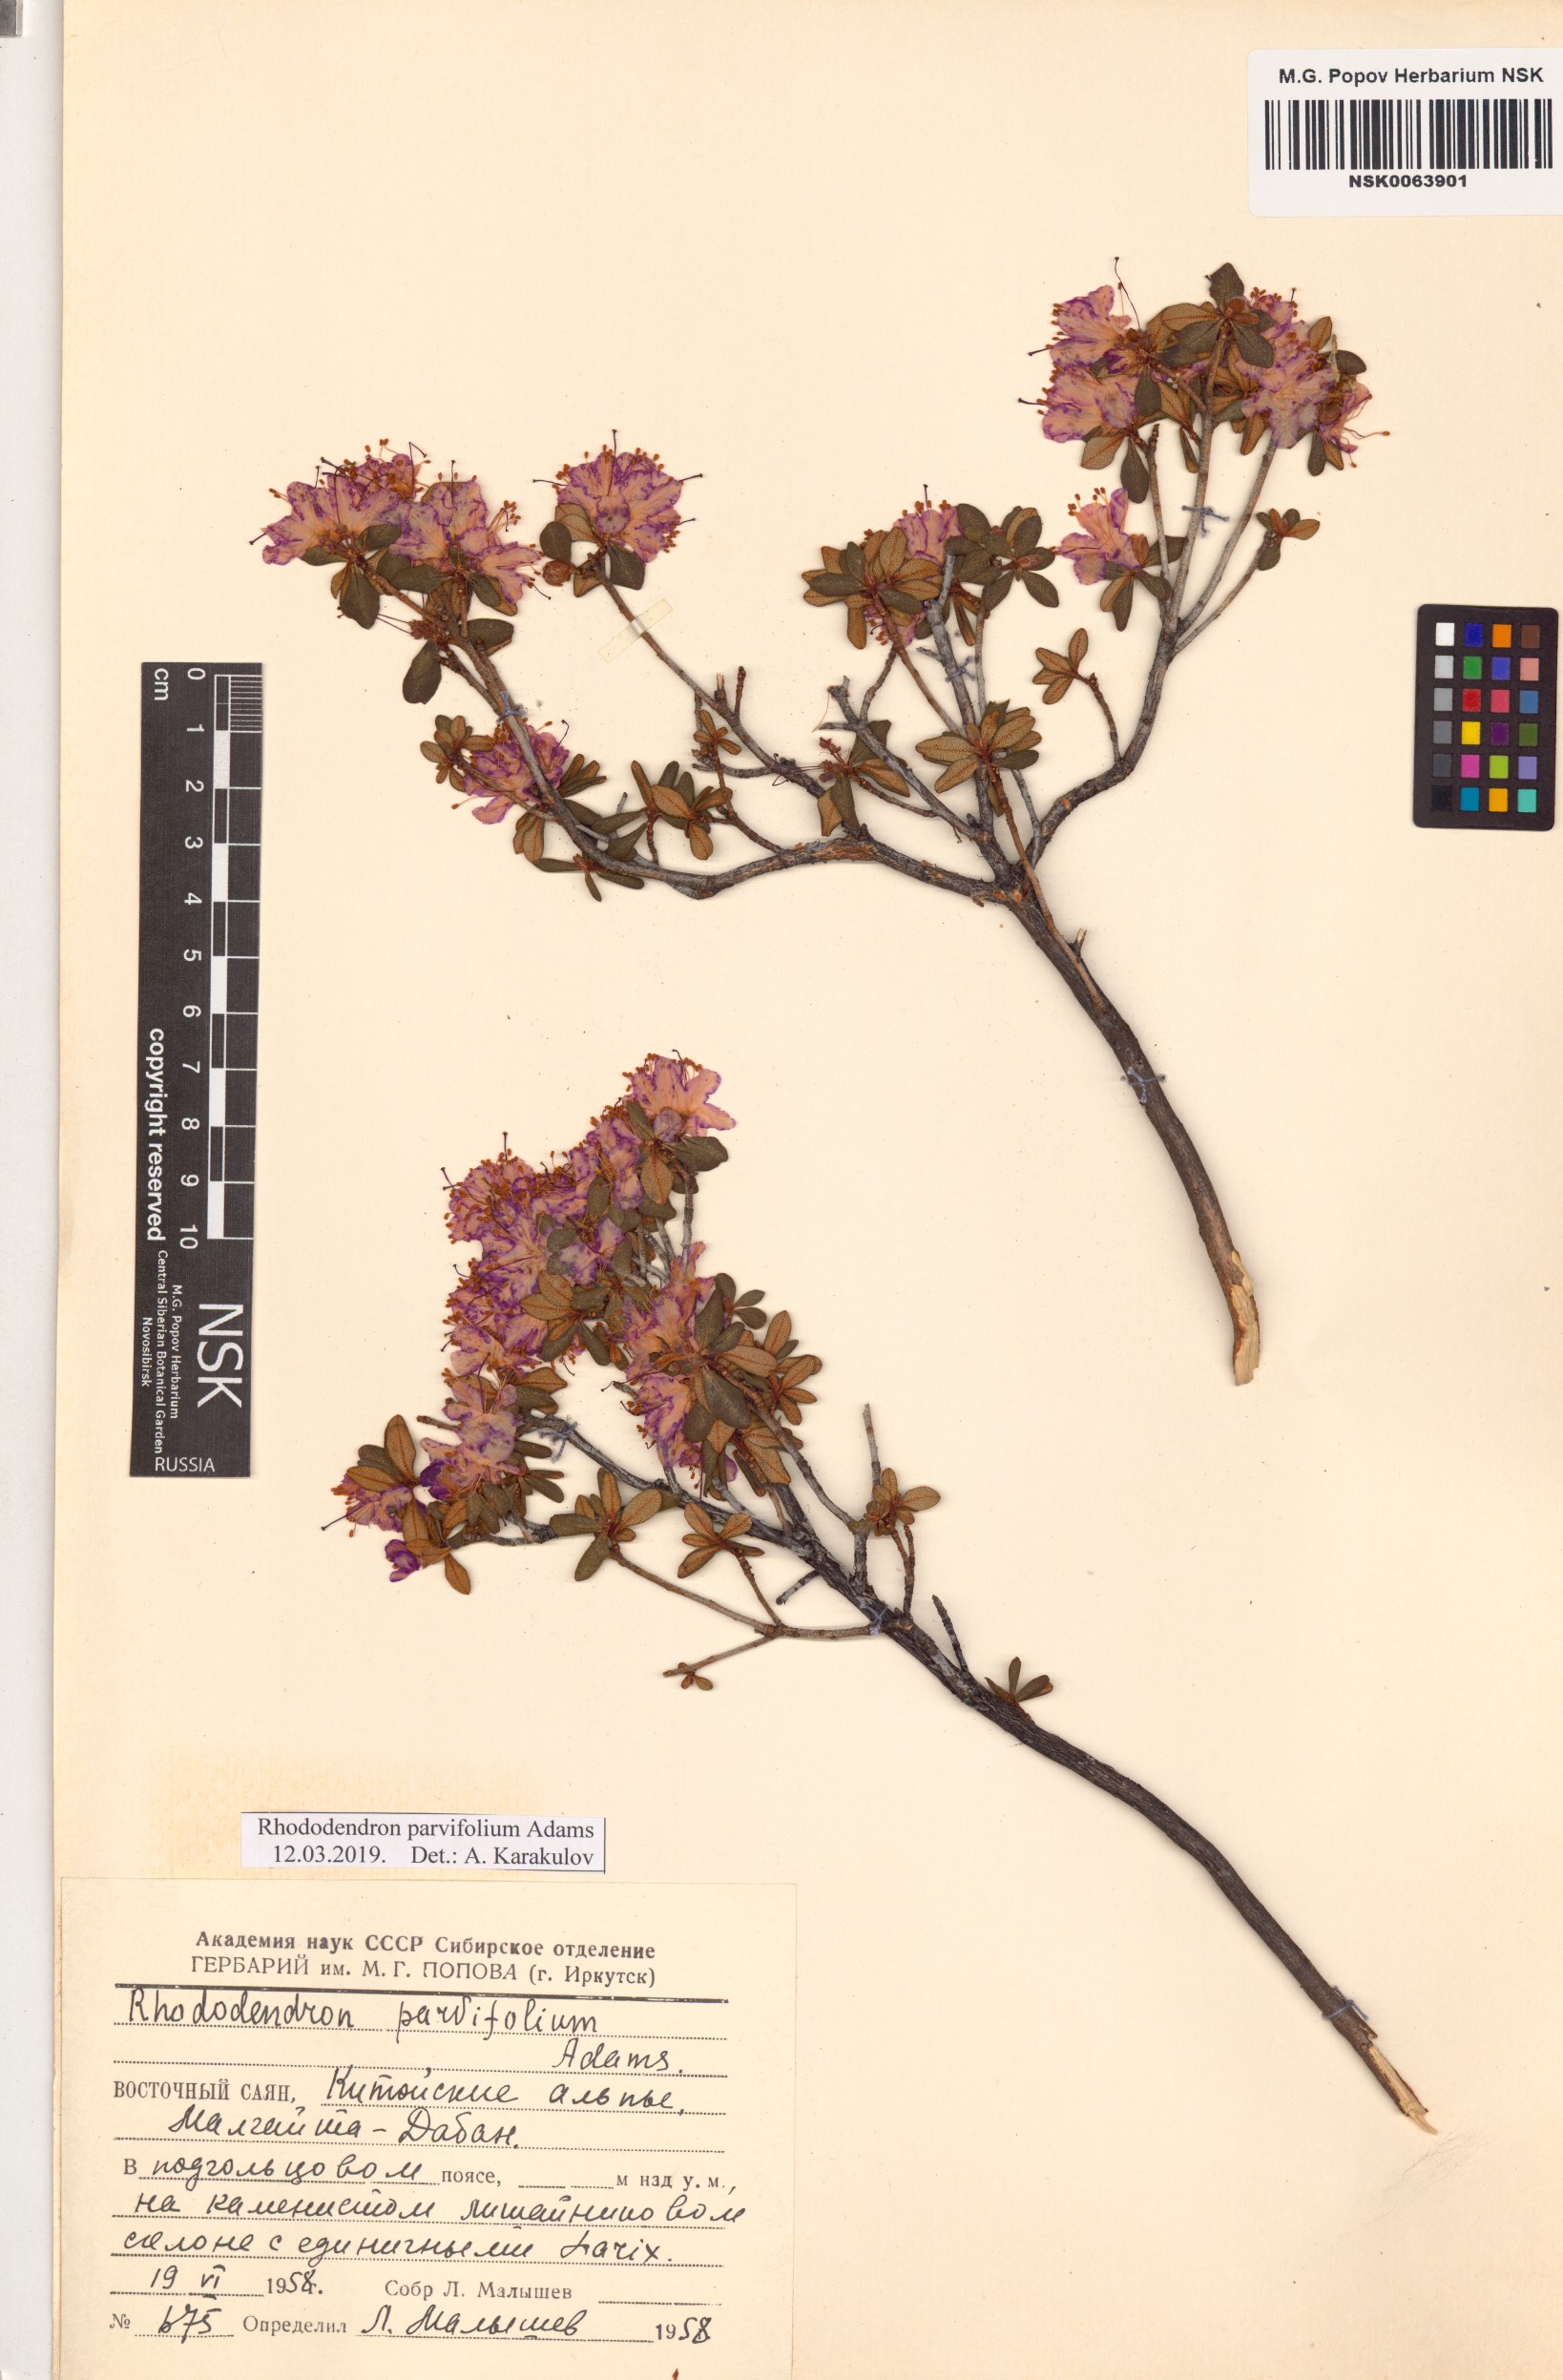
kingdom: Plantae
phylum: Tracheophyta
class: Magnoliopsida
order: Ericales
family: Ericaceae
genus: Rhododendron
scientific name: Rhododendron parvifolium
